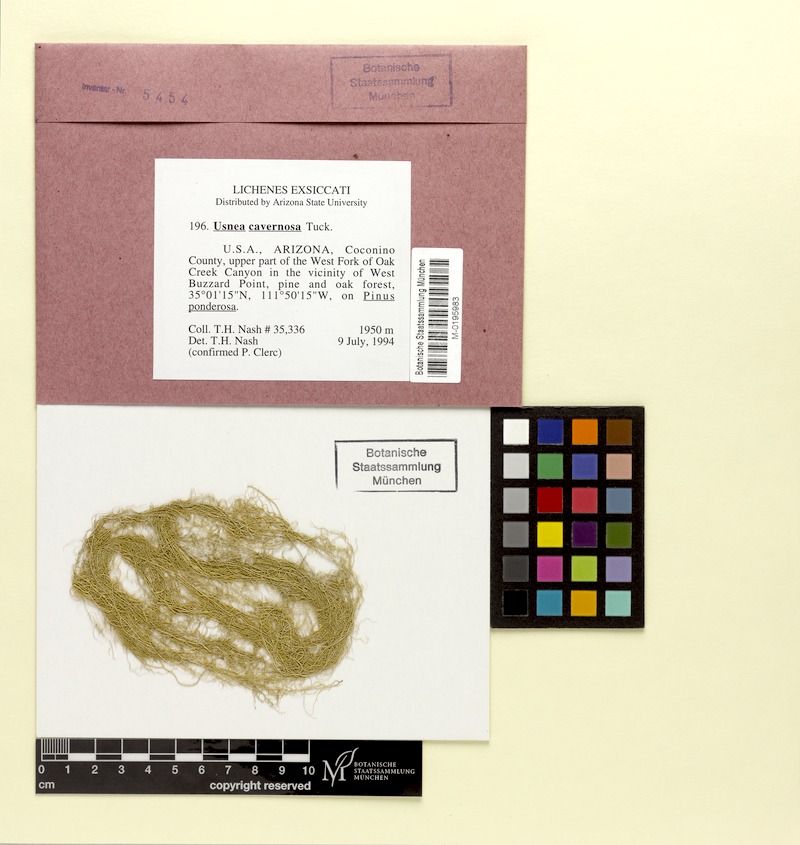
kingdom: Fungi
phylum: Ascomycota
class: Lecanoromycetes
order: Lecanorales
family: Parmeliaceae
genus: Usnea
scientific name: Usnea cavernosa
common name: Pitted beard lichen
